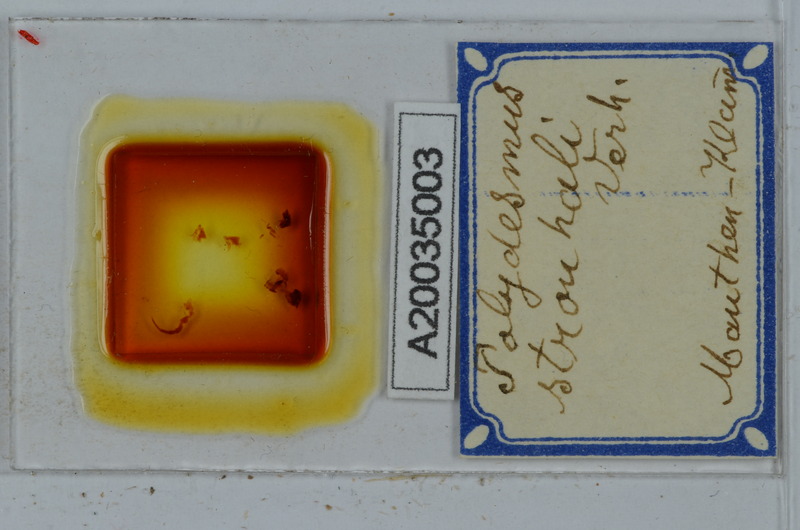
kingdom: Animalia
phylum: Arthropoda
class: Diplopoda
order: Polydesmida
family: Polydesmidae
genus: Polydesmus
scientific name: Polydesmus rangifer
